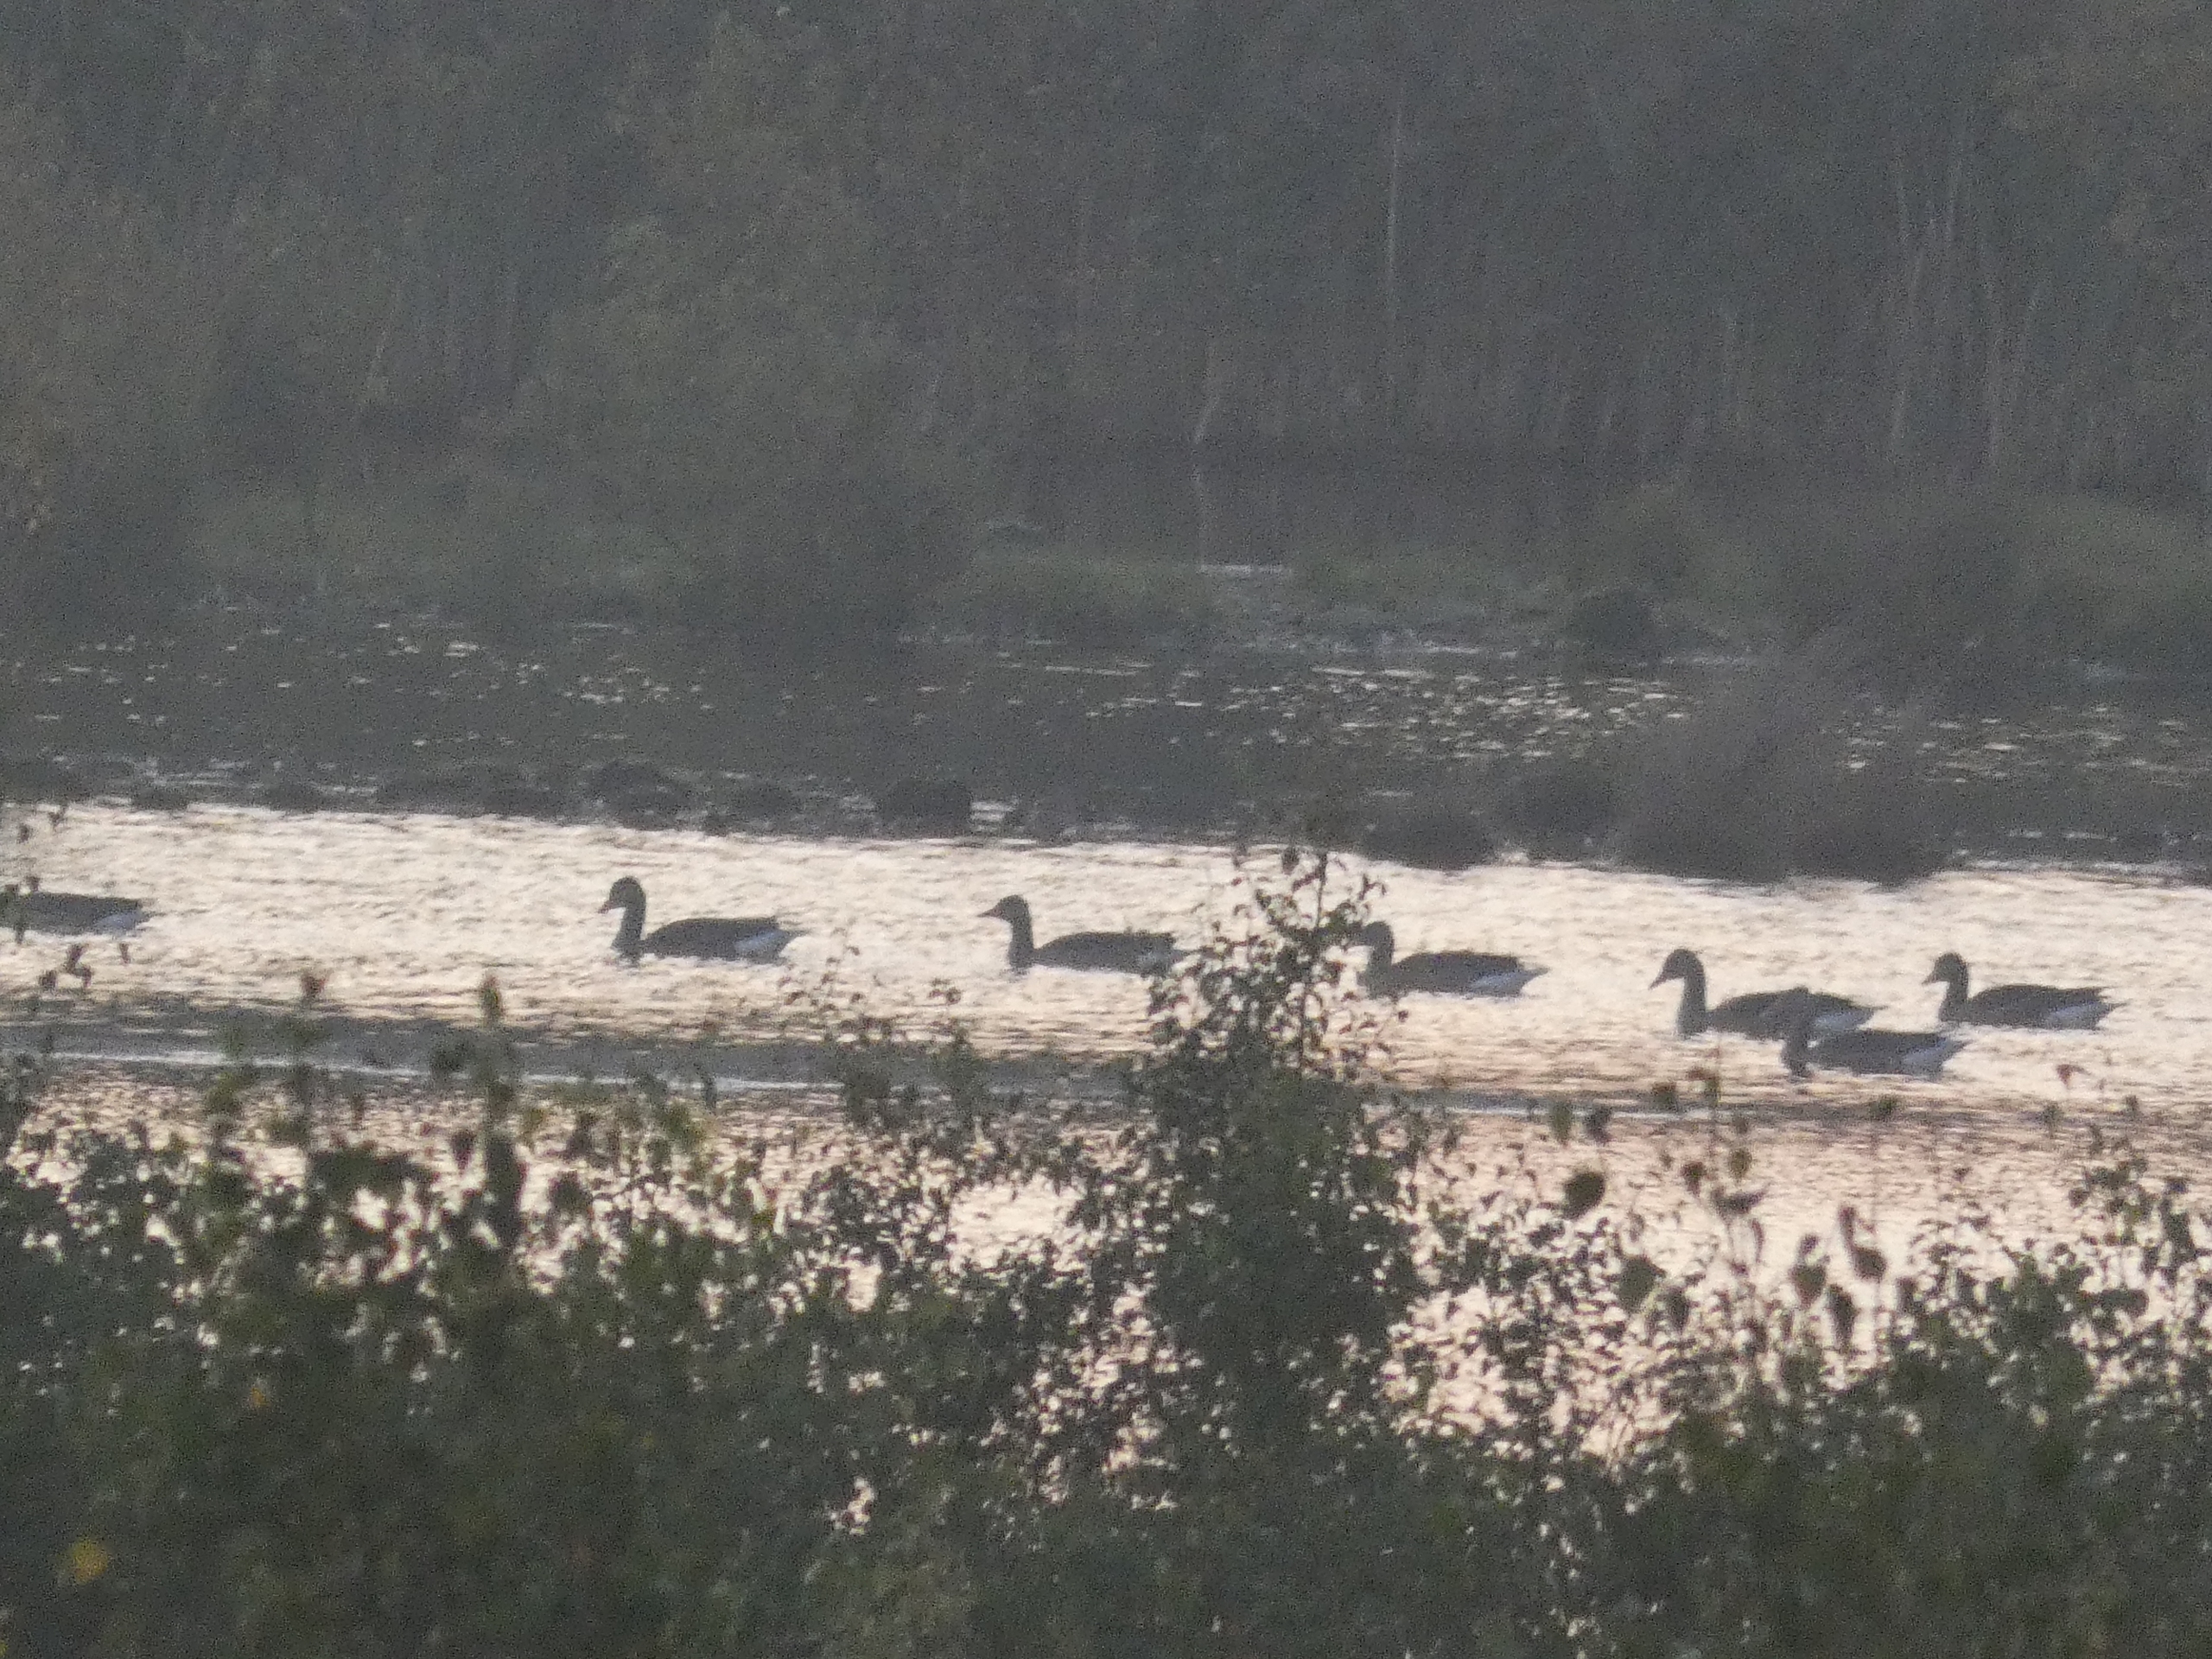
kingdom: Animalia
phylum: Chordata
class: Aves
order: Anseriformes
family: Anatidae
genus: Anser
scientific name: Anser anser
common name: Grågås
